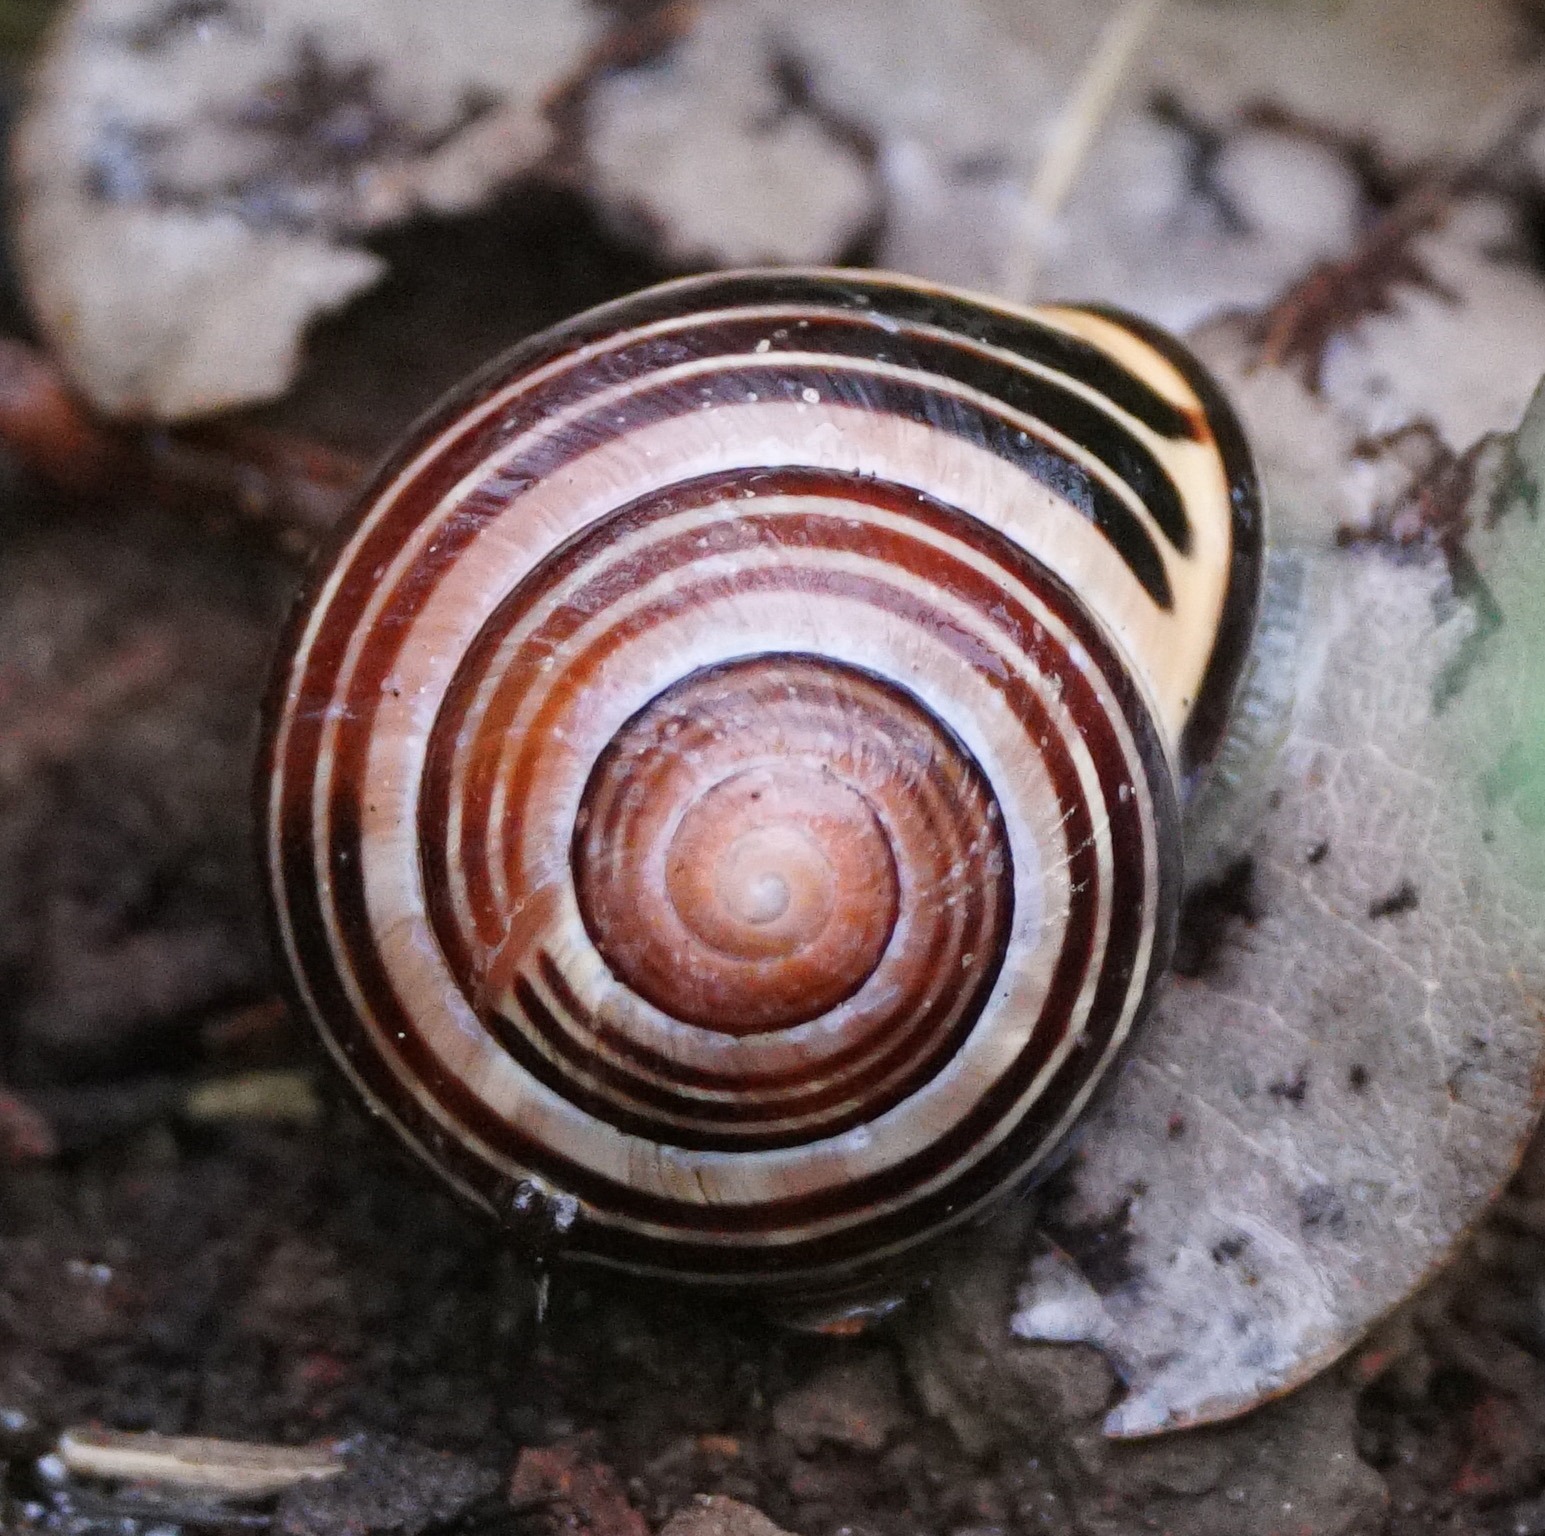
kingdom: Animalia
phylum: Mollusca
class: Gastropoda
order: Stylommatophora
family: Helicidae
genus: Cepaea
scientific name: Cepaea nemoralis
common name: Lundsnegl
